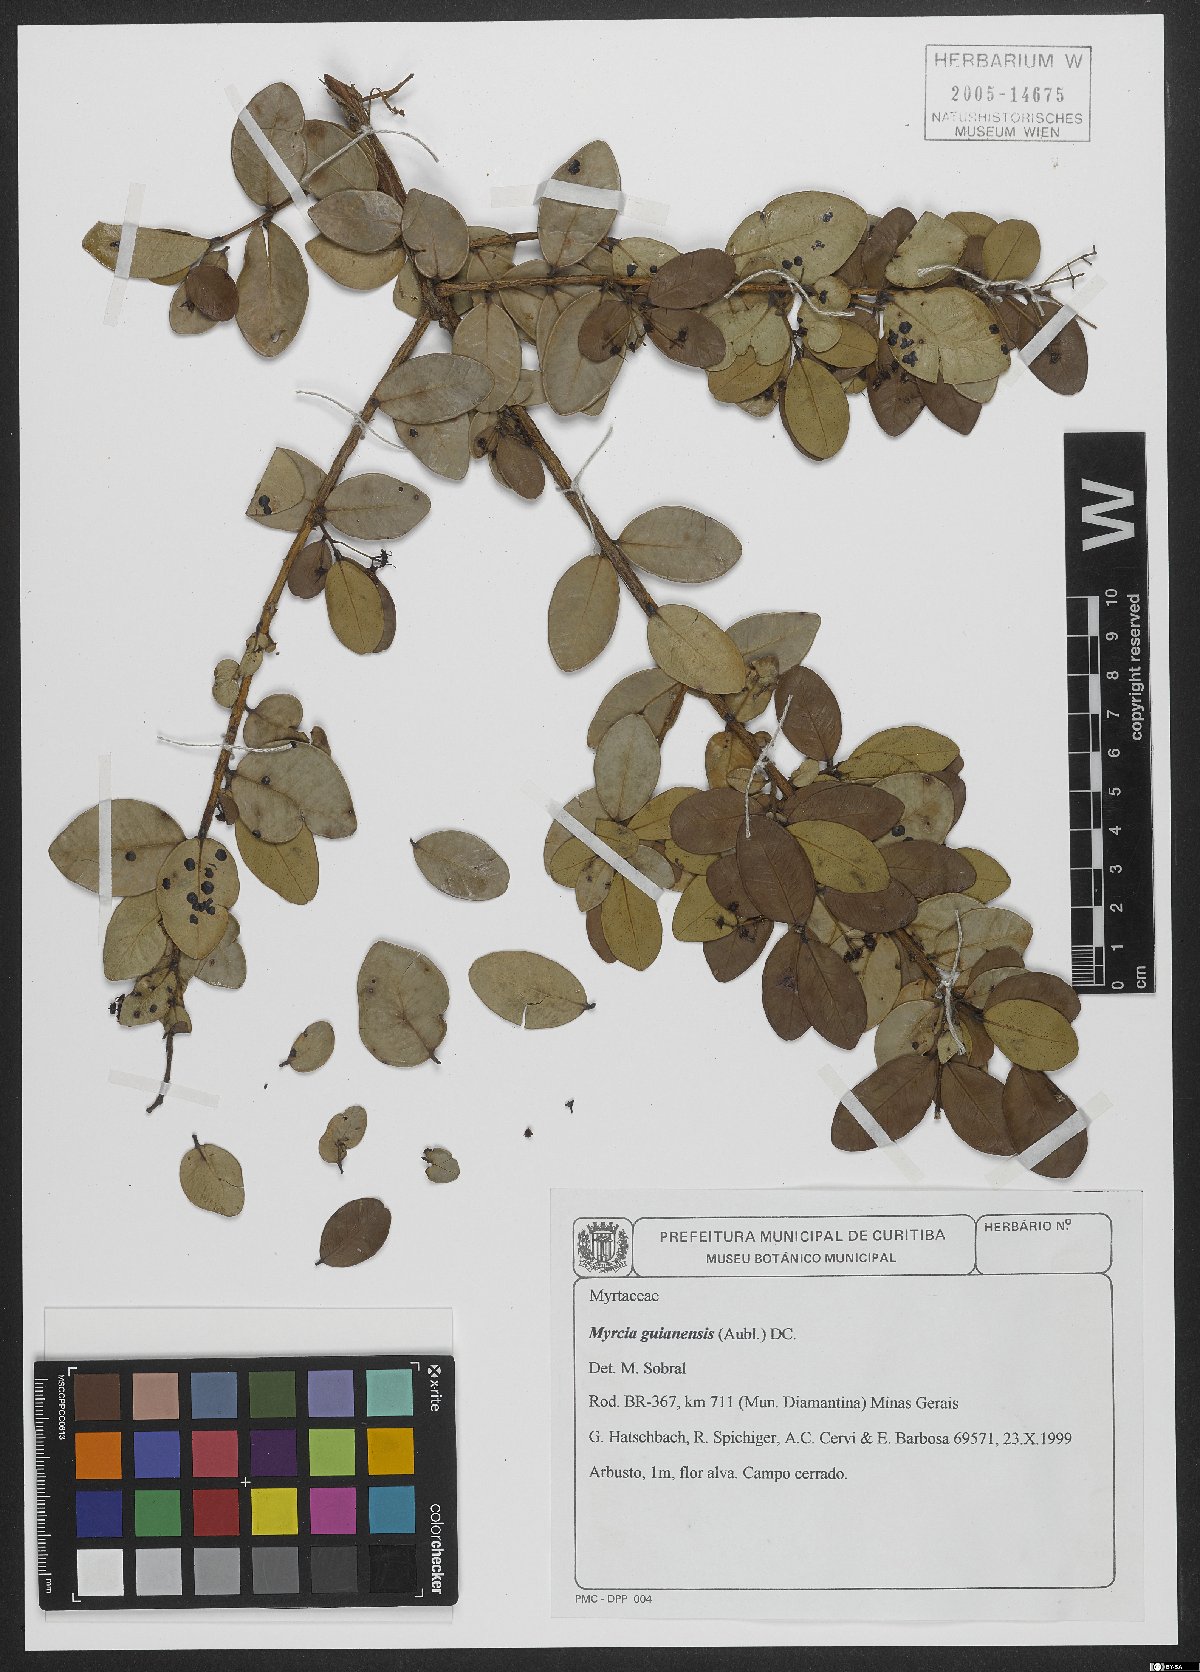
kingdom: Plantae
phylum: Tracheophyta
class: Magnoliopsida
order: Myrtales
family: Myrtaceae
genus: Myrcia
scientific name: Myrcia guianensis
